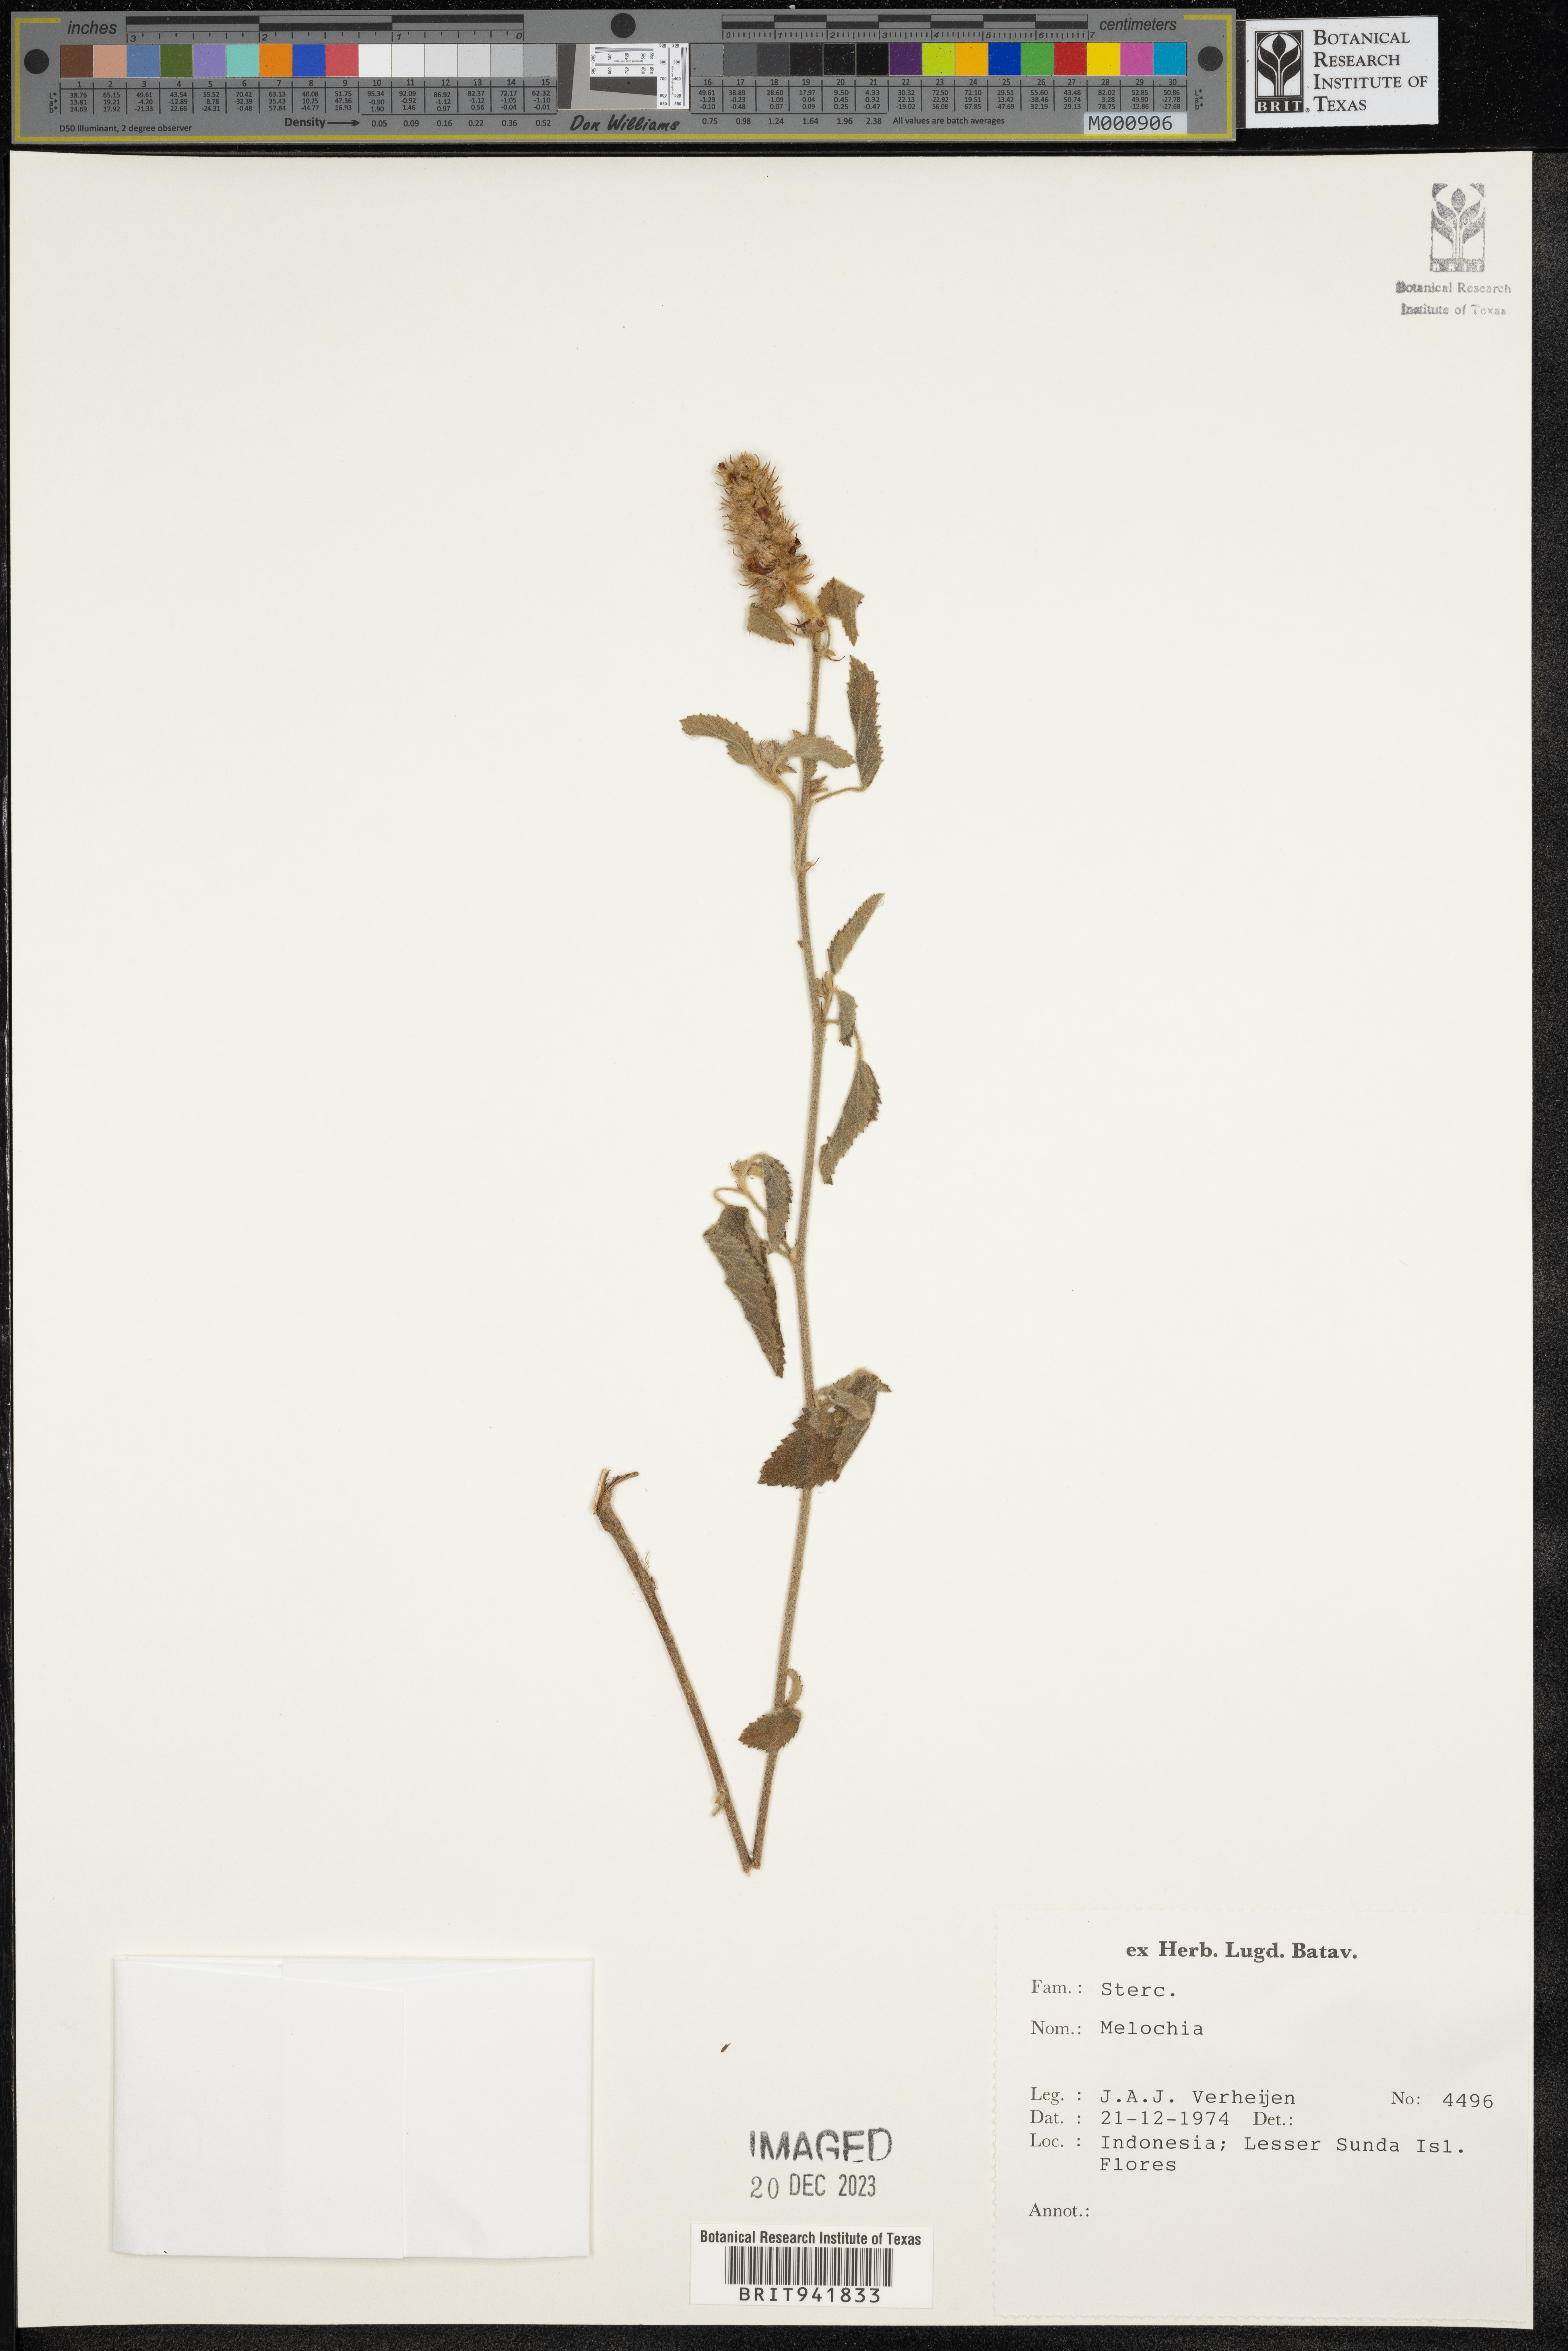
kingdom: Plantae
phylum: Tracheophyta
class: Magnoliopsida
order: Malvales
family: Malvaceae
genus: Melochia
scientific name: Melochia
